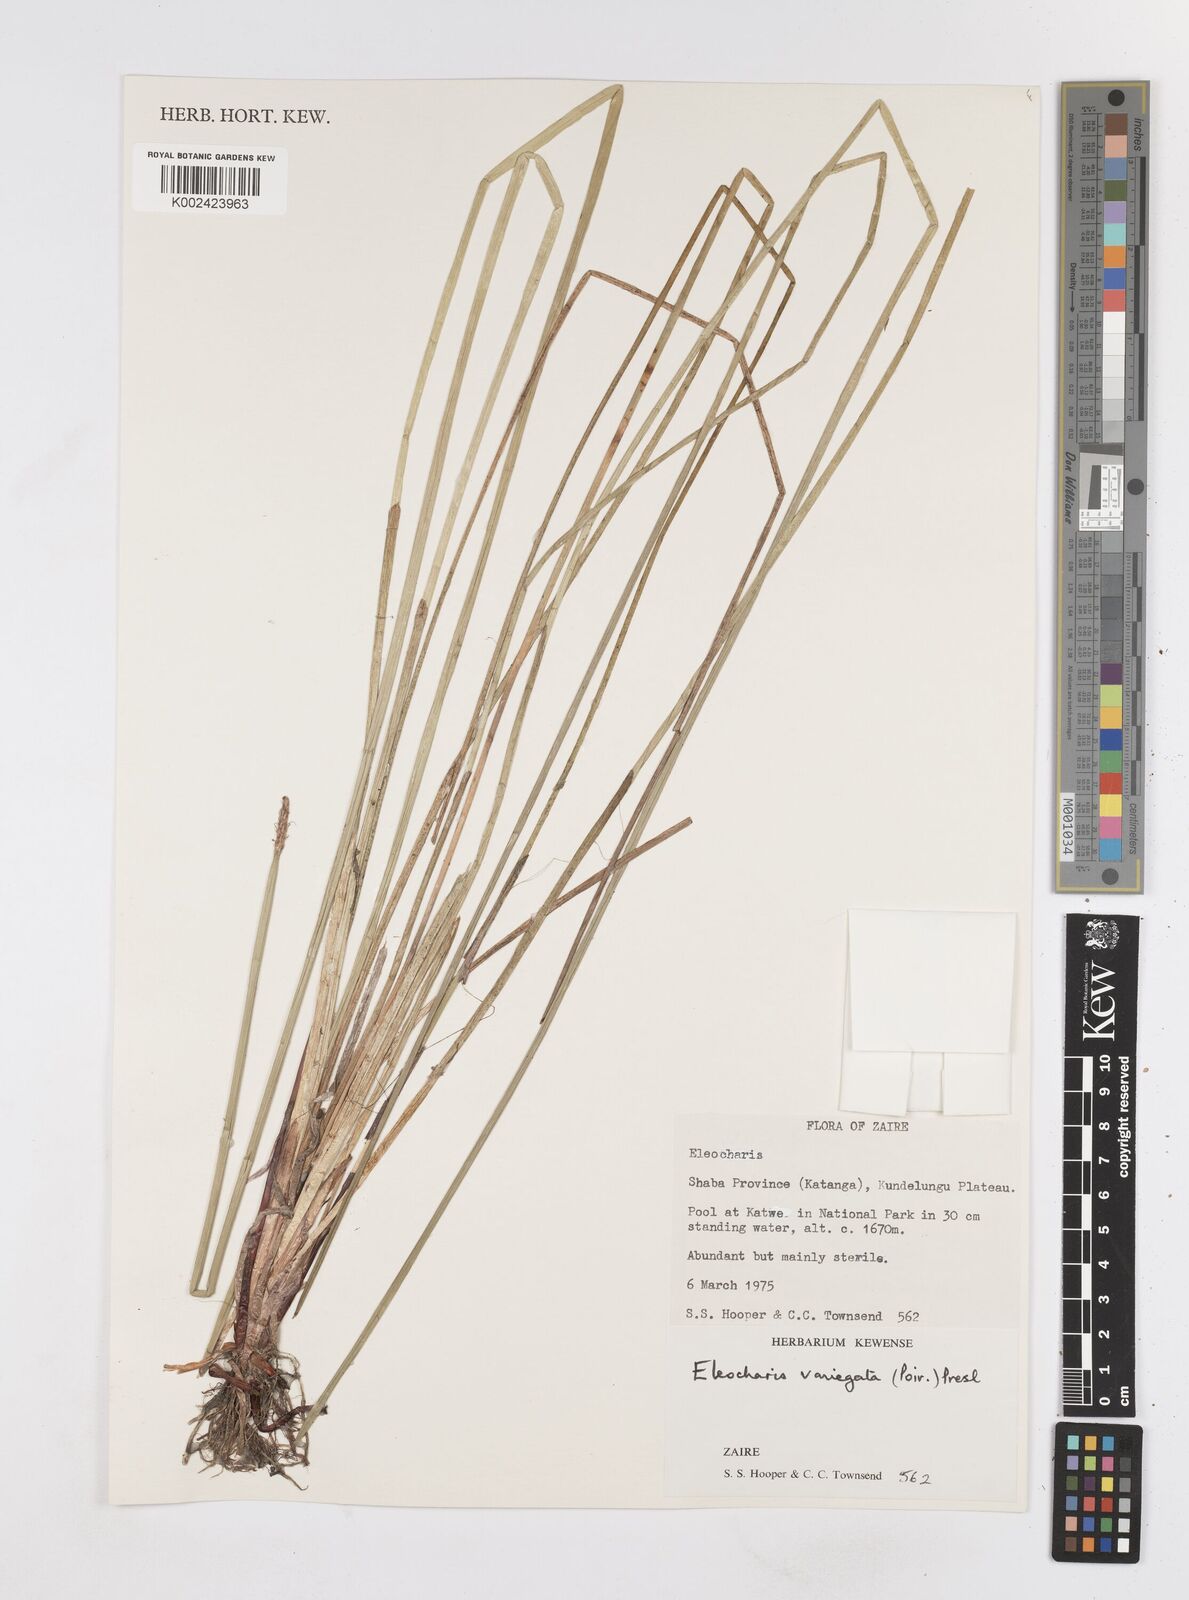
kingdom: Plantae
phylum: Tracheophyta
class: Liliopsida
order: Poales
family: Cyperaceae
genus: Eleocharis
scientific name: Eleocharis variegata
